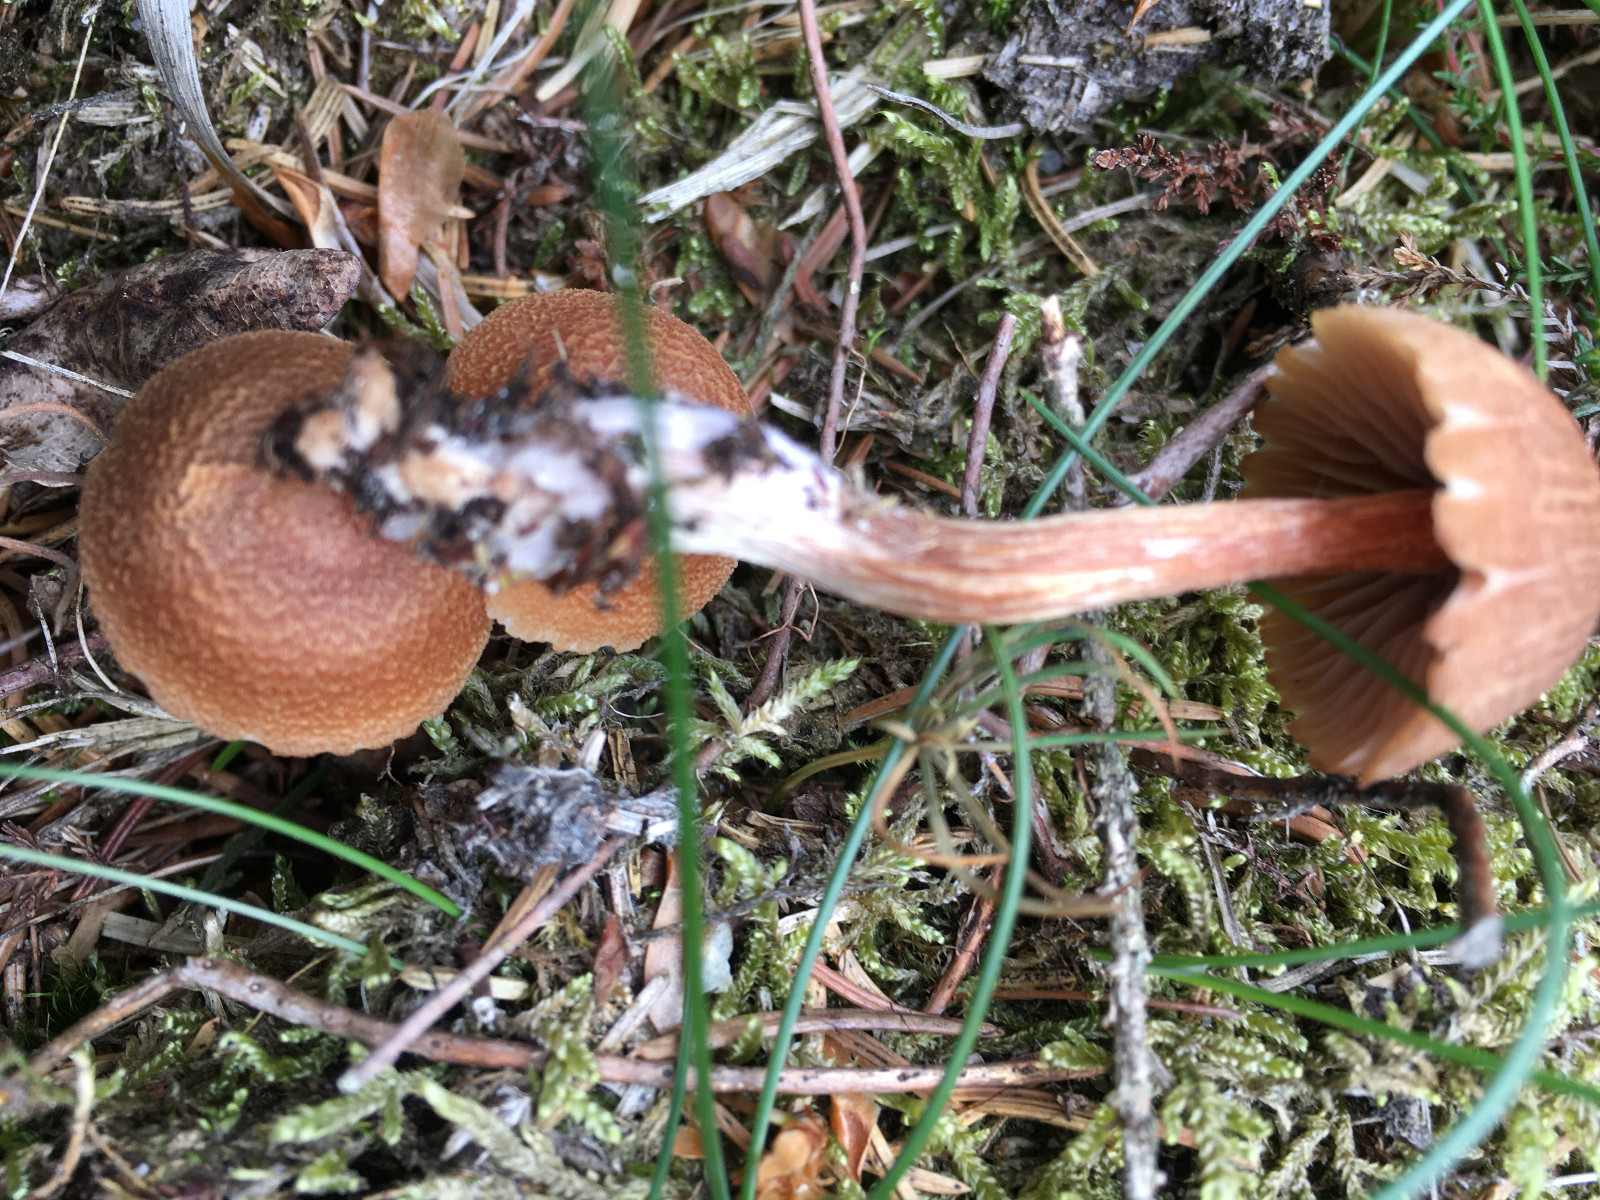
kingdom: Fungi
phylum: Basidiomycota
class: Agaricomycetes
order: Agaricales
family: Hydnangiaceae
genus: Laccaria
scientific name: Laccaria bicolor
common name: tvefarvet ametysthat
